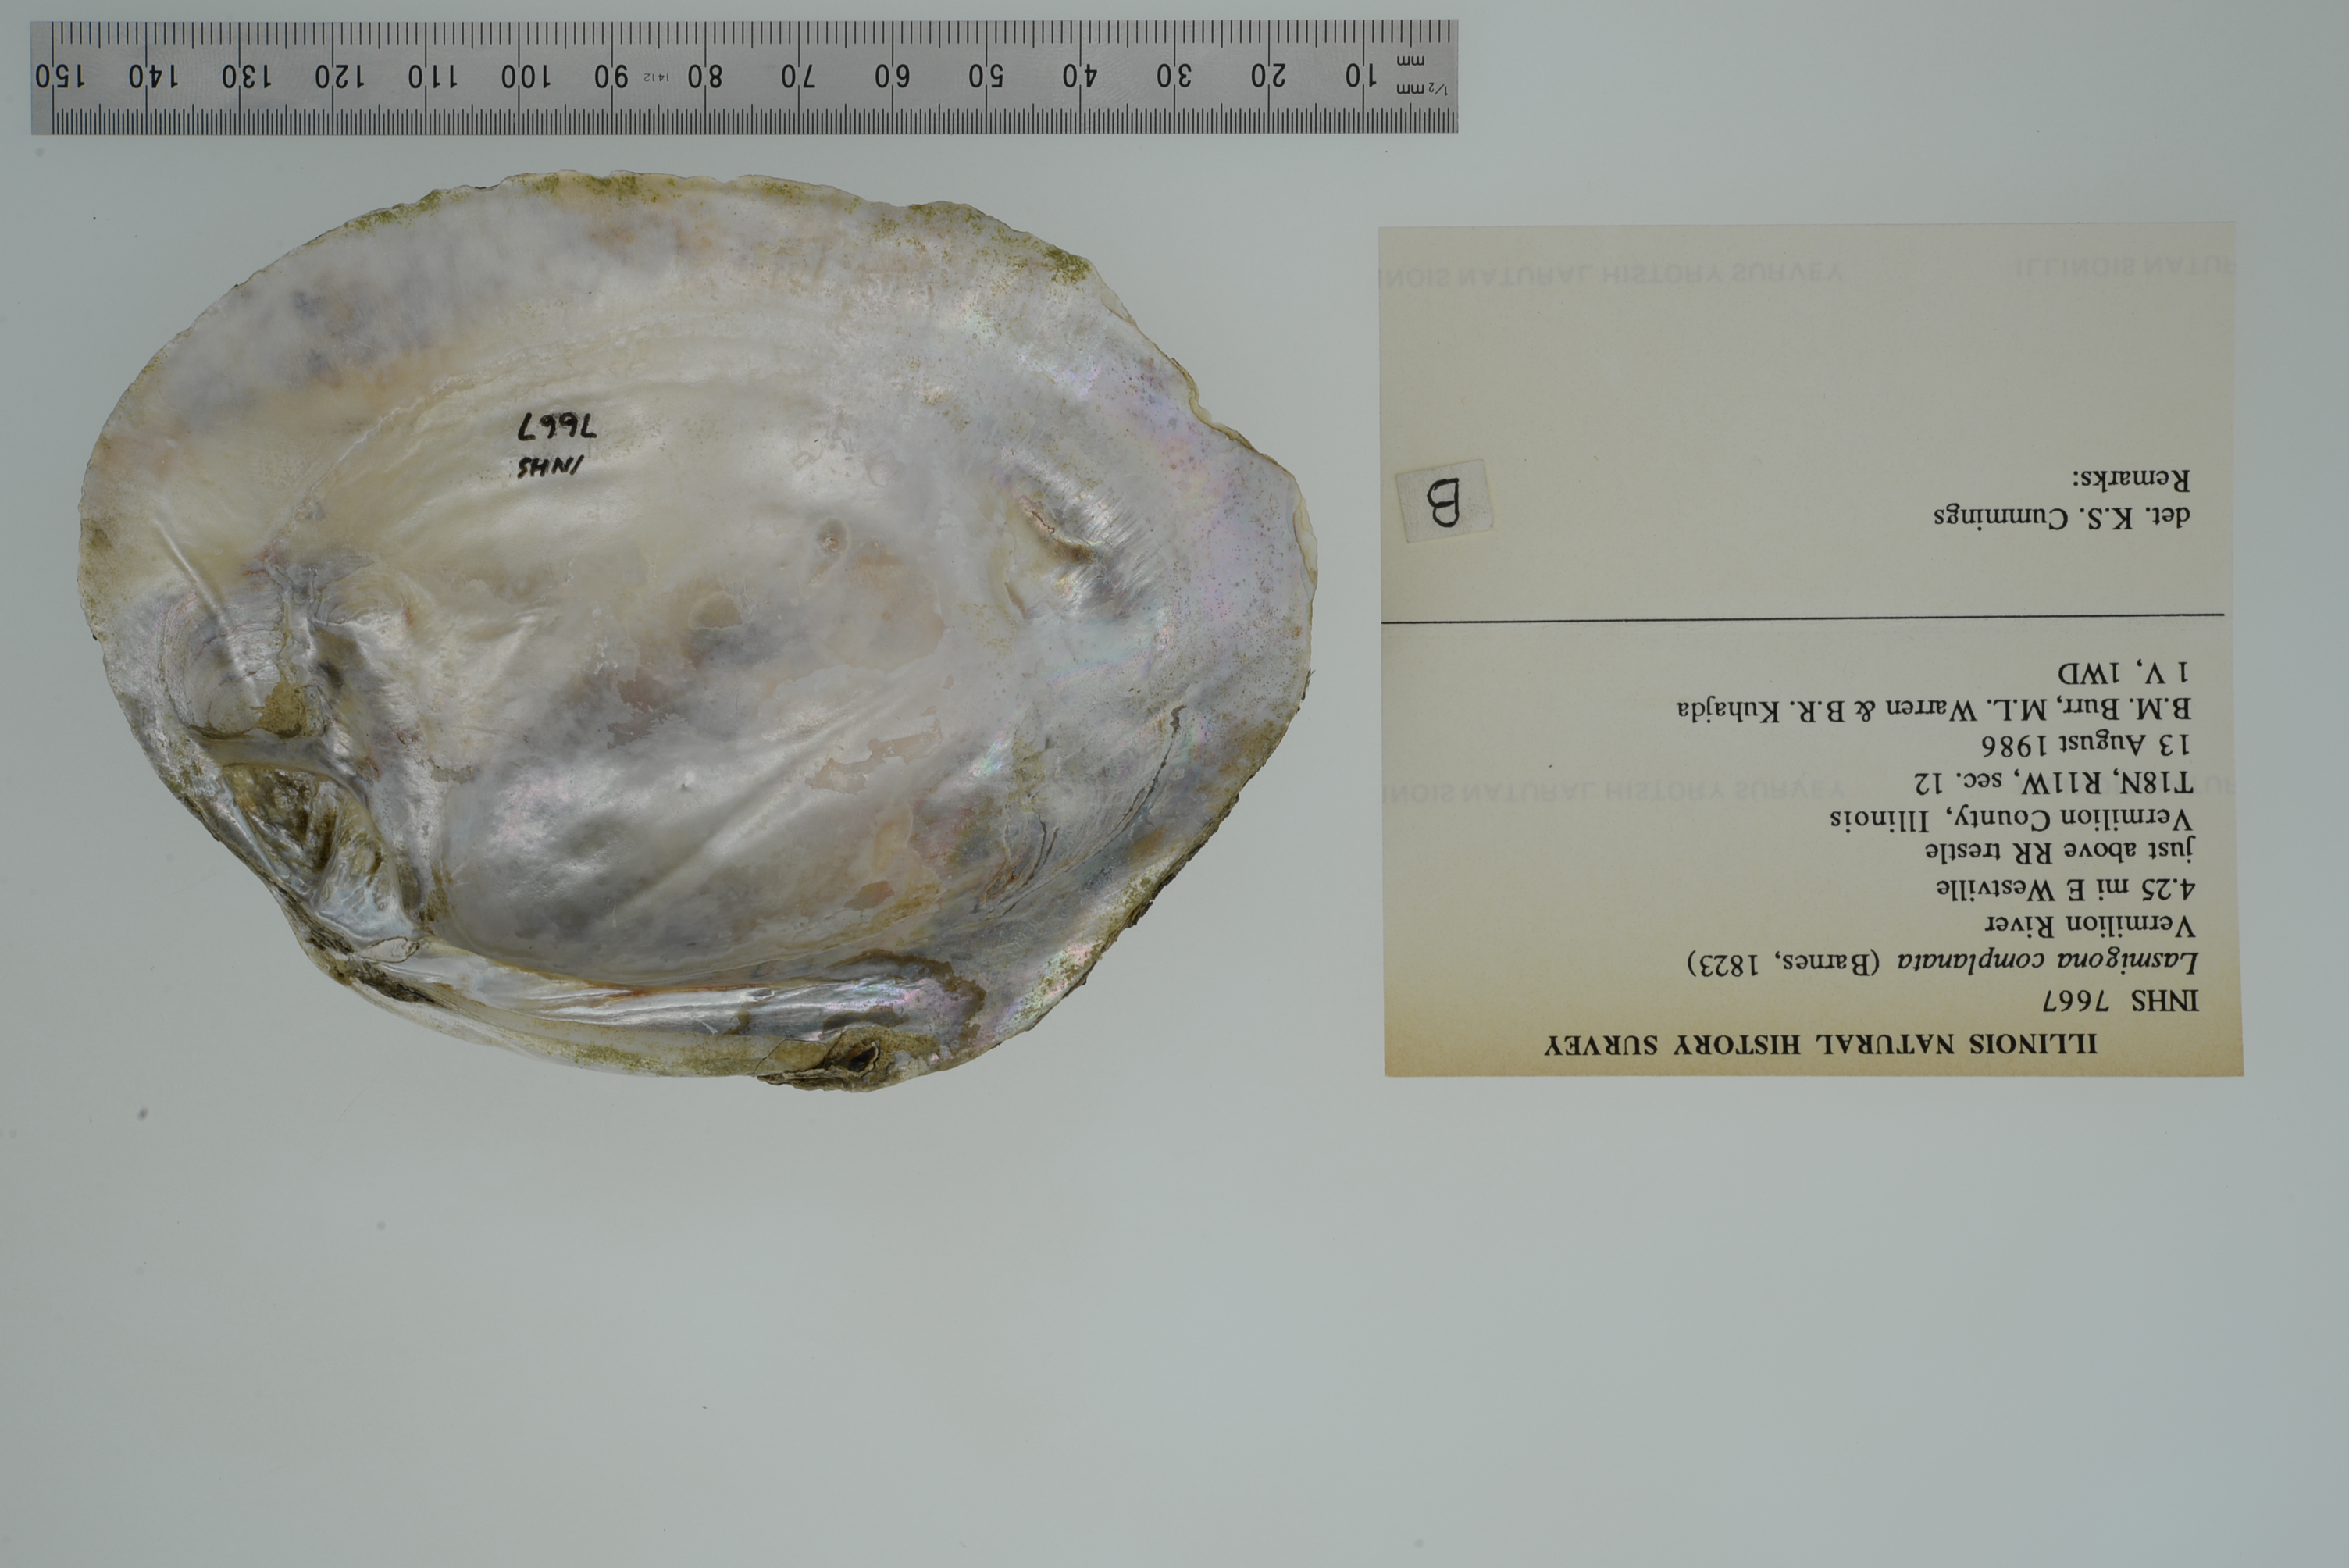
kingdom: Animalia
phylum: Mollusca
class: Bivalvia
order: Unionida
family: Unionidae
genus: Lasmigona
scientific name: Lasmigona complanata
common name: White heelsplitter
